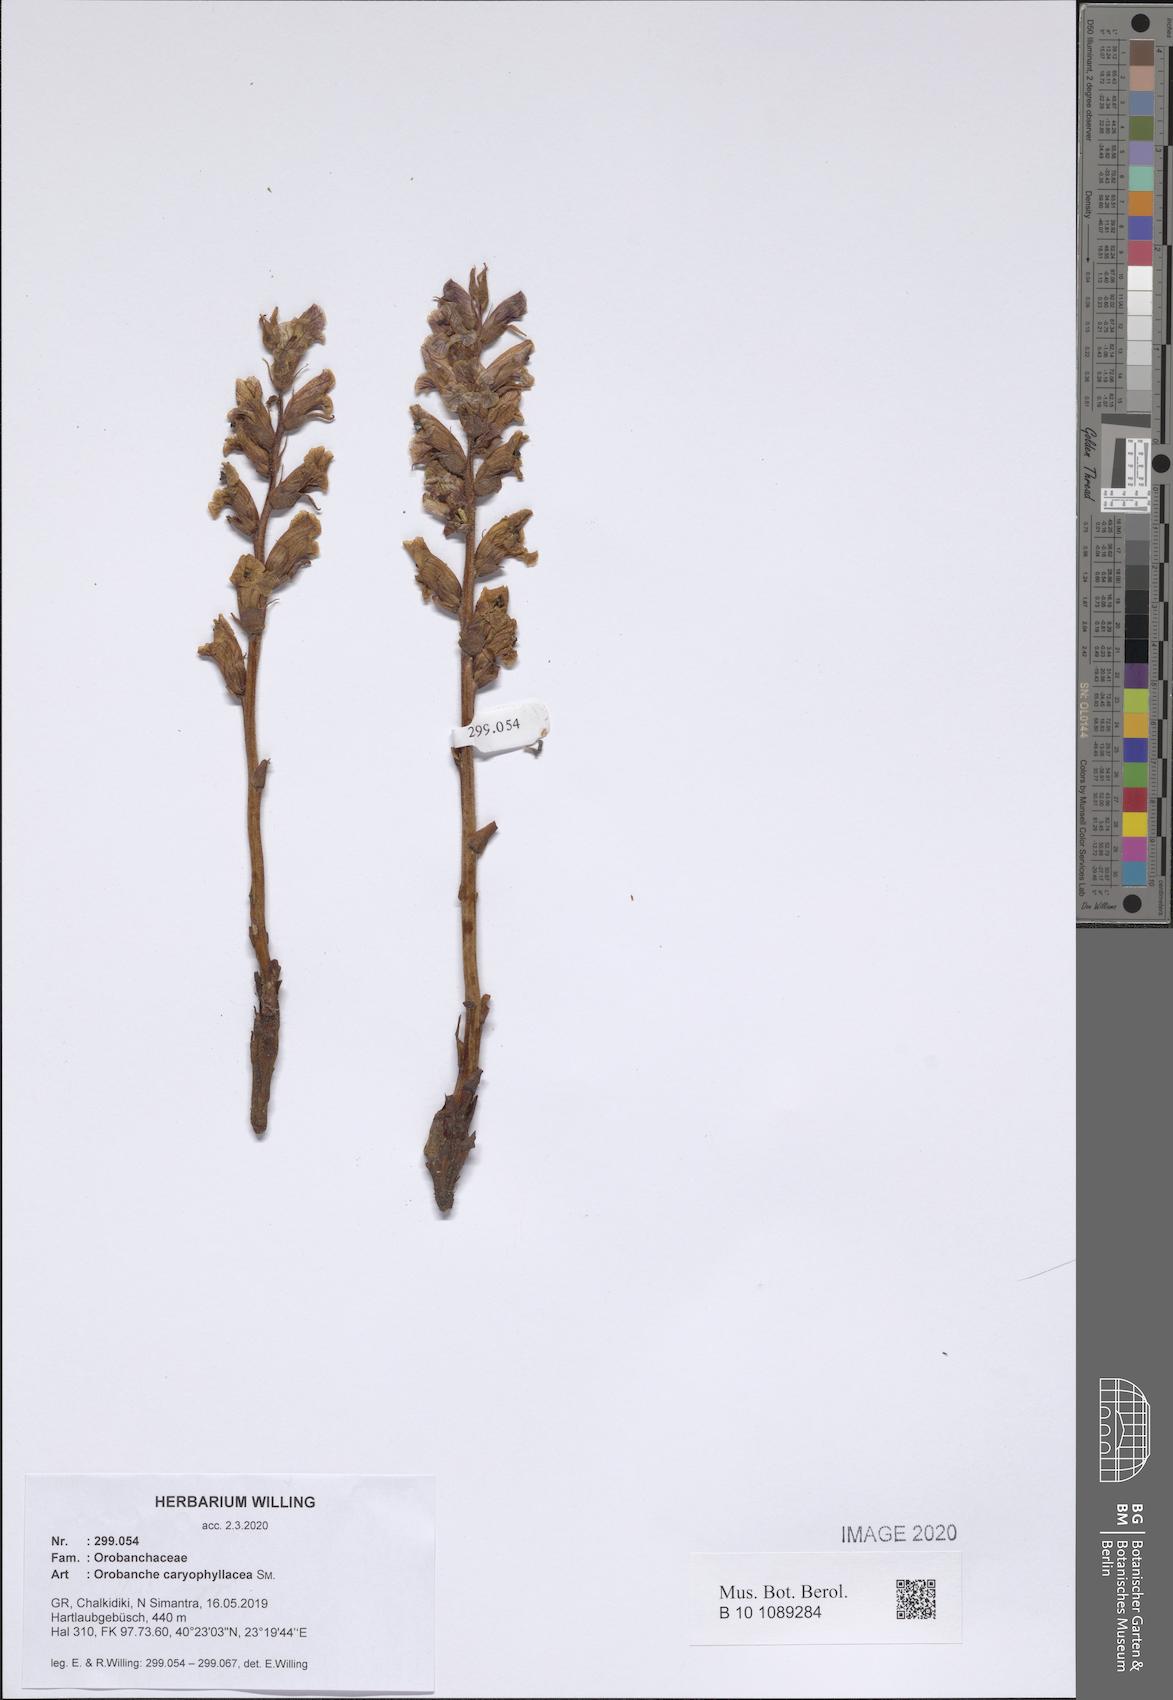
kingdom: Plantae
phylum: Tracheophyta
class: Magnoliopsida
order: Lamiales
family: Orobanchaceae
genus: Orobanche
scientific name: Orobanche caryophyllacea
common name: Bedstraw broomrape
